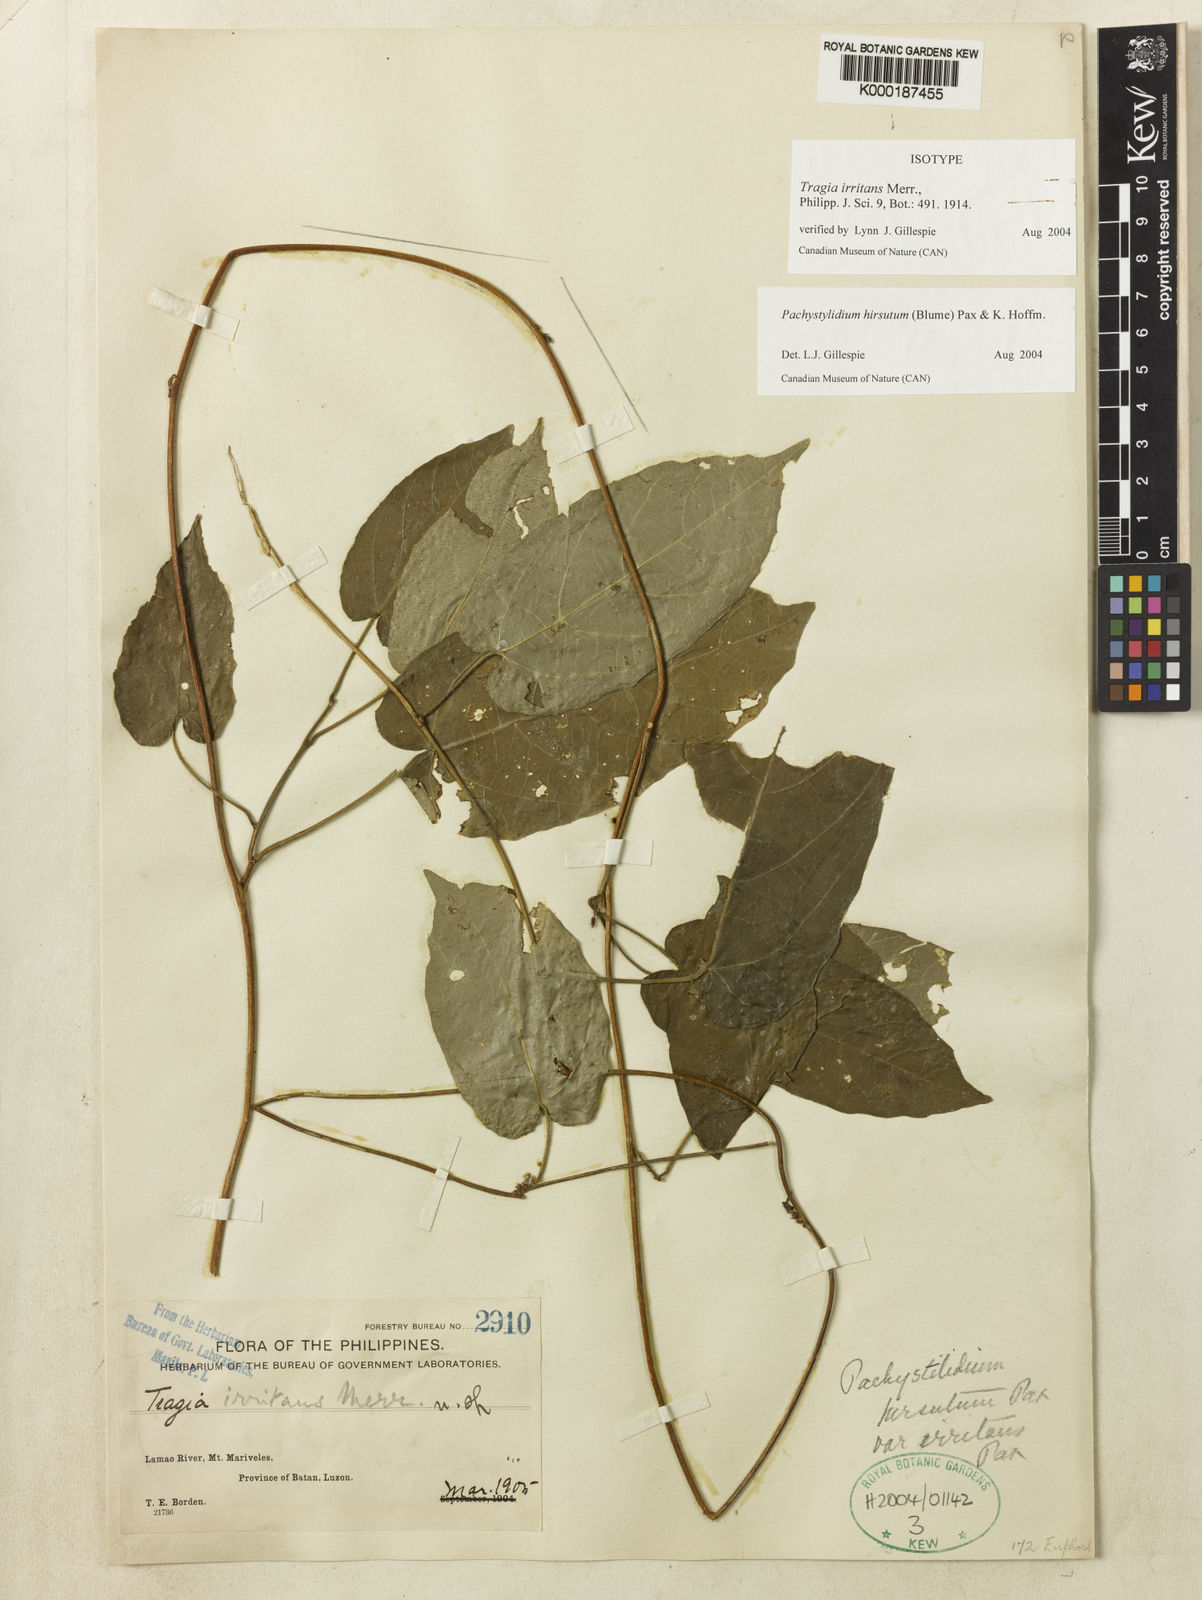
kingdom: Plantae
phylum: Tracheophyta
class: Magnoliopsida
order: Malpighiales
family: Euphorbiaceae
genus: Pachystylidium
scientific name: Pachystylidium hirsutum
